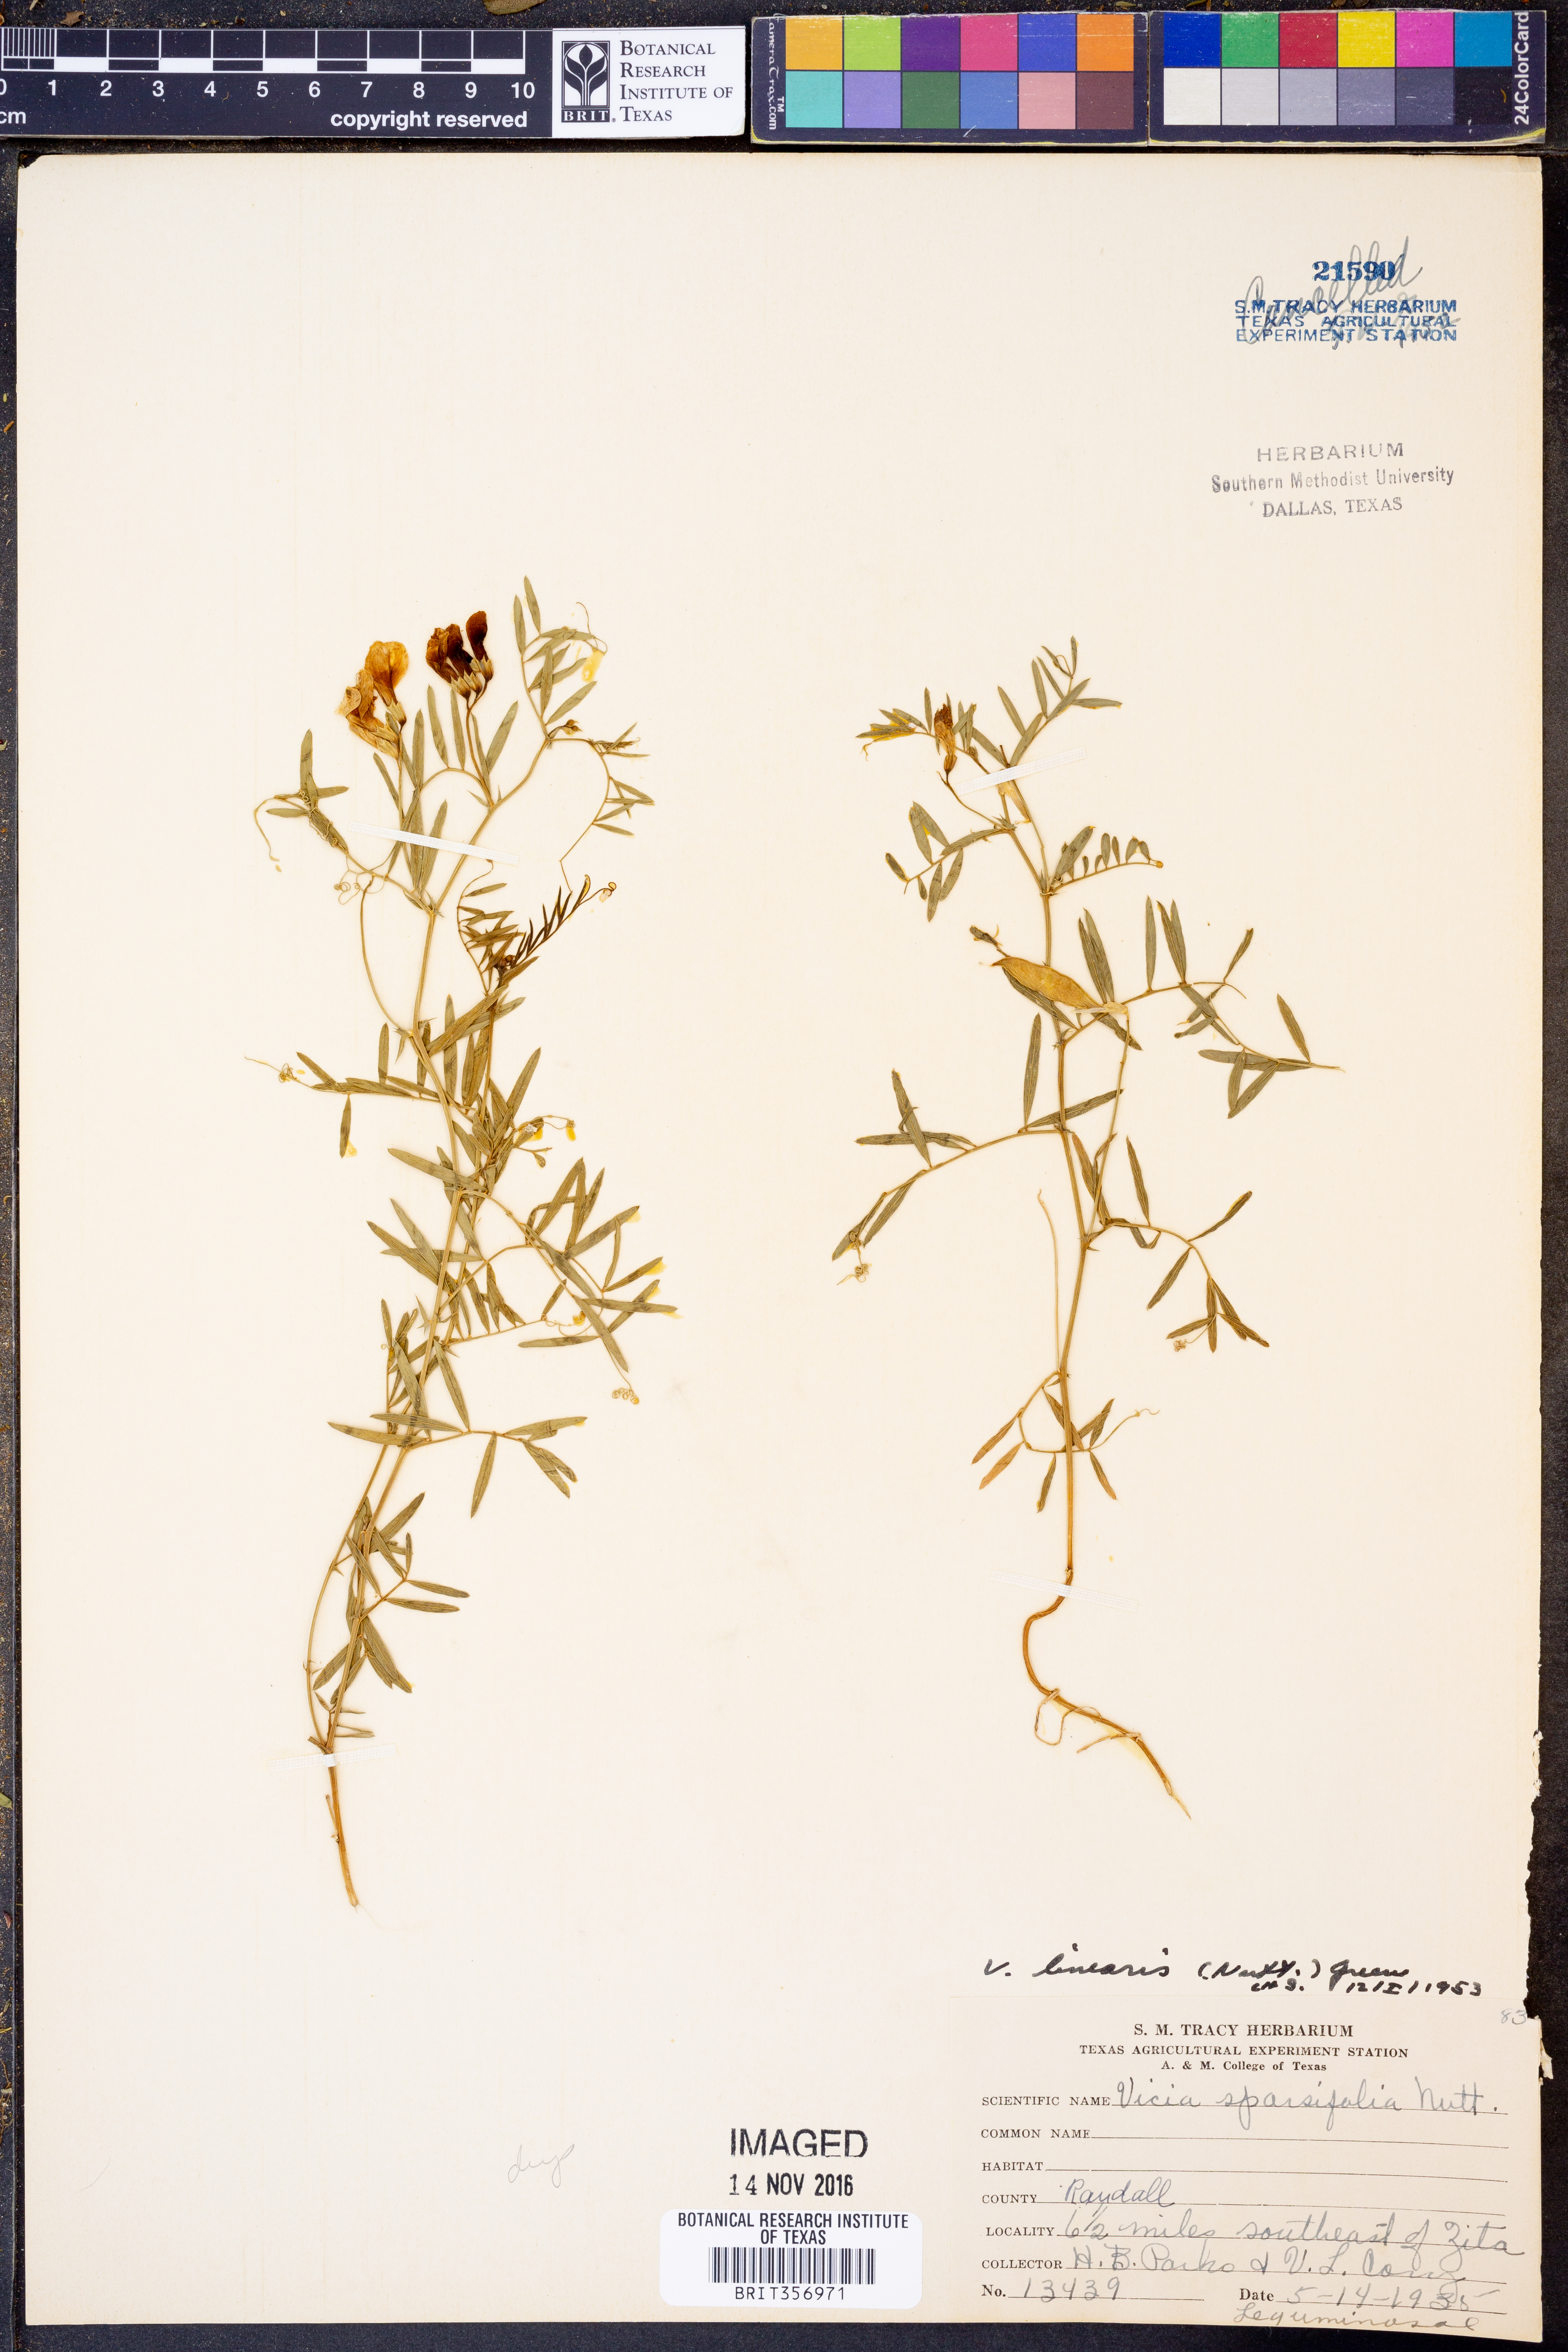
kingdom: Plantae
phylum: Tracheophyta
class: Magnoliopsida
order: Fabales
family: Fabaceae
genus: Vicia
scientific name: Vicia americana
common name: American vetch
